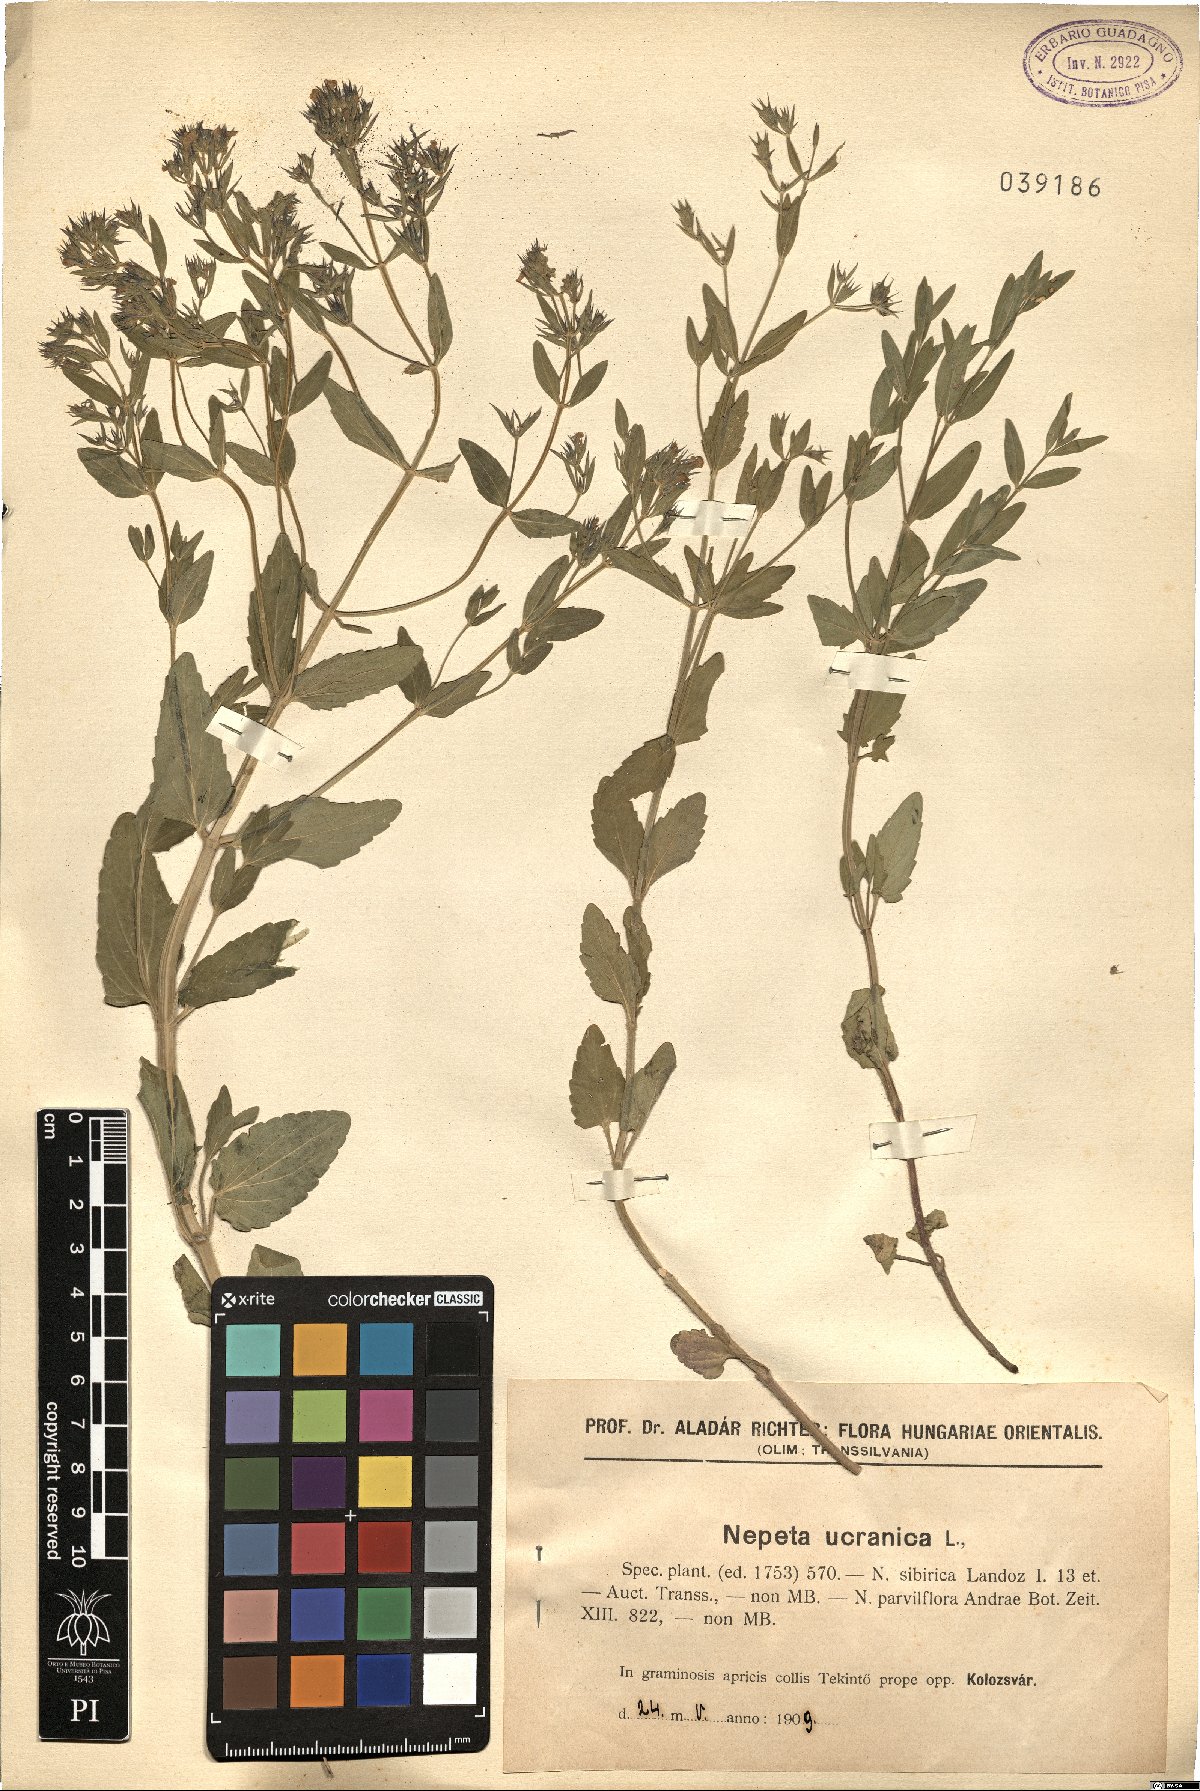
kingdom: Plantae
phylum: Tracheophyta
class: Magnoliopsida
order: Lamiales
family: Lamiaceae
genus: Nepeta
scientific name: Nepeta ucranica
